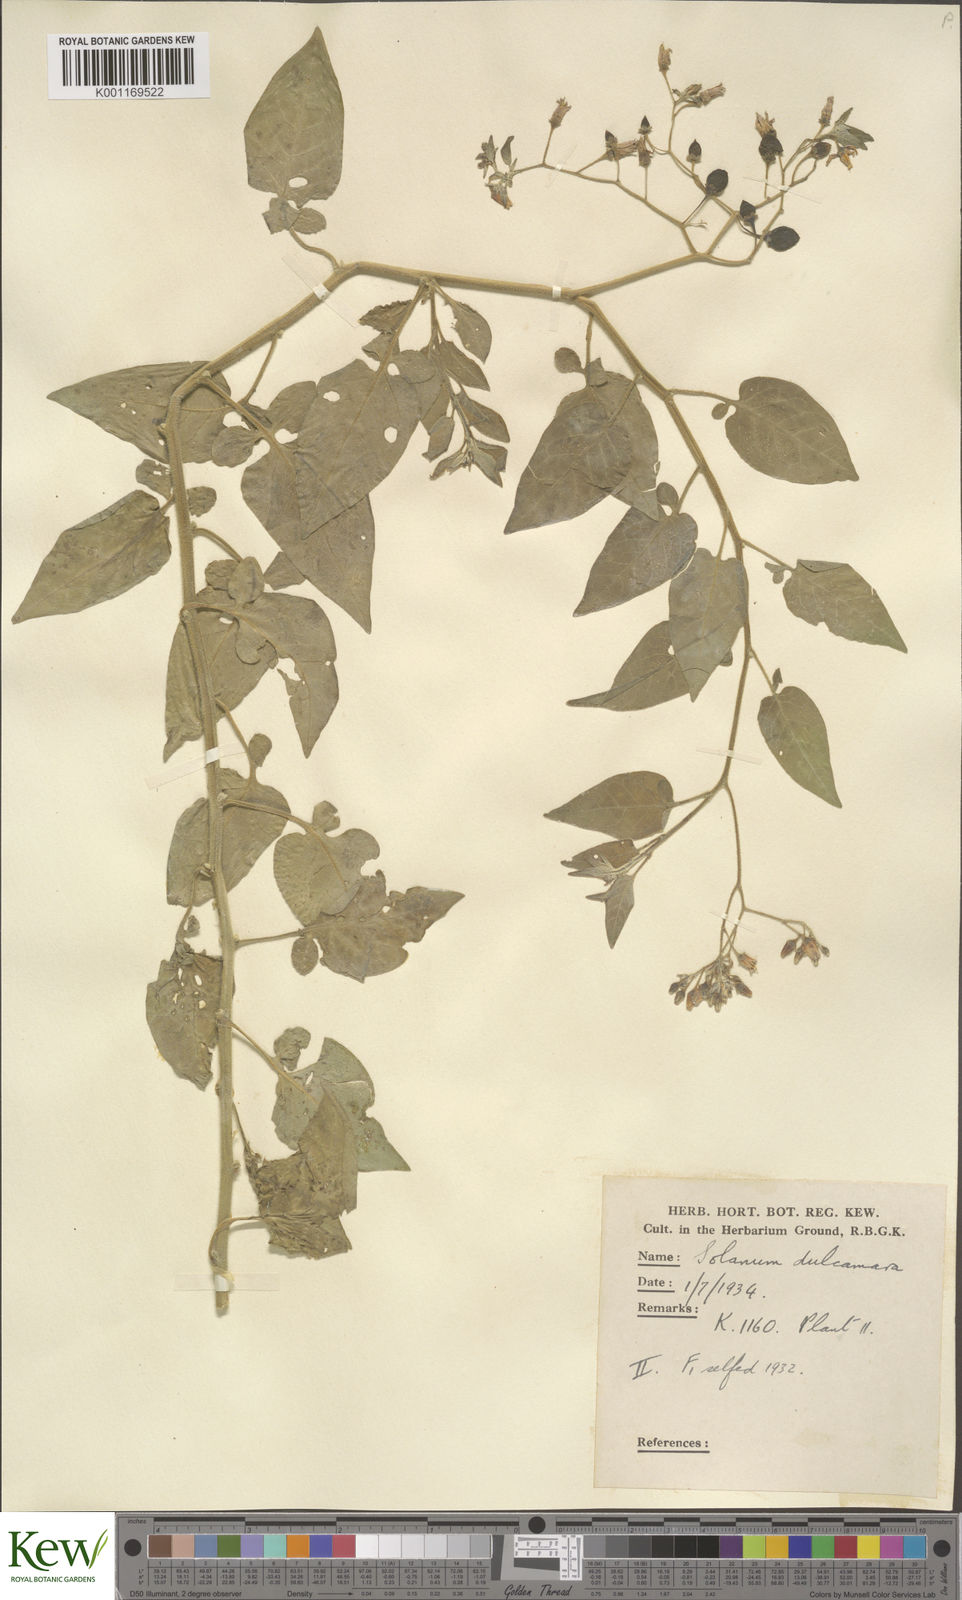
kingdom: Plantae
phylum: Tracheophyta
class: Magnoliopsida
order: Solanales
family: Solanaceae
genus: Solanum
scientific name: Solanum dulcamara
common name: Climbing nightshade
